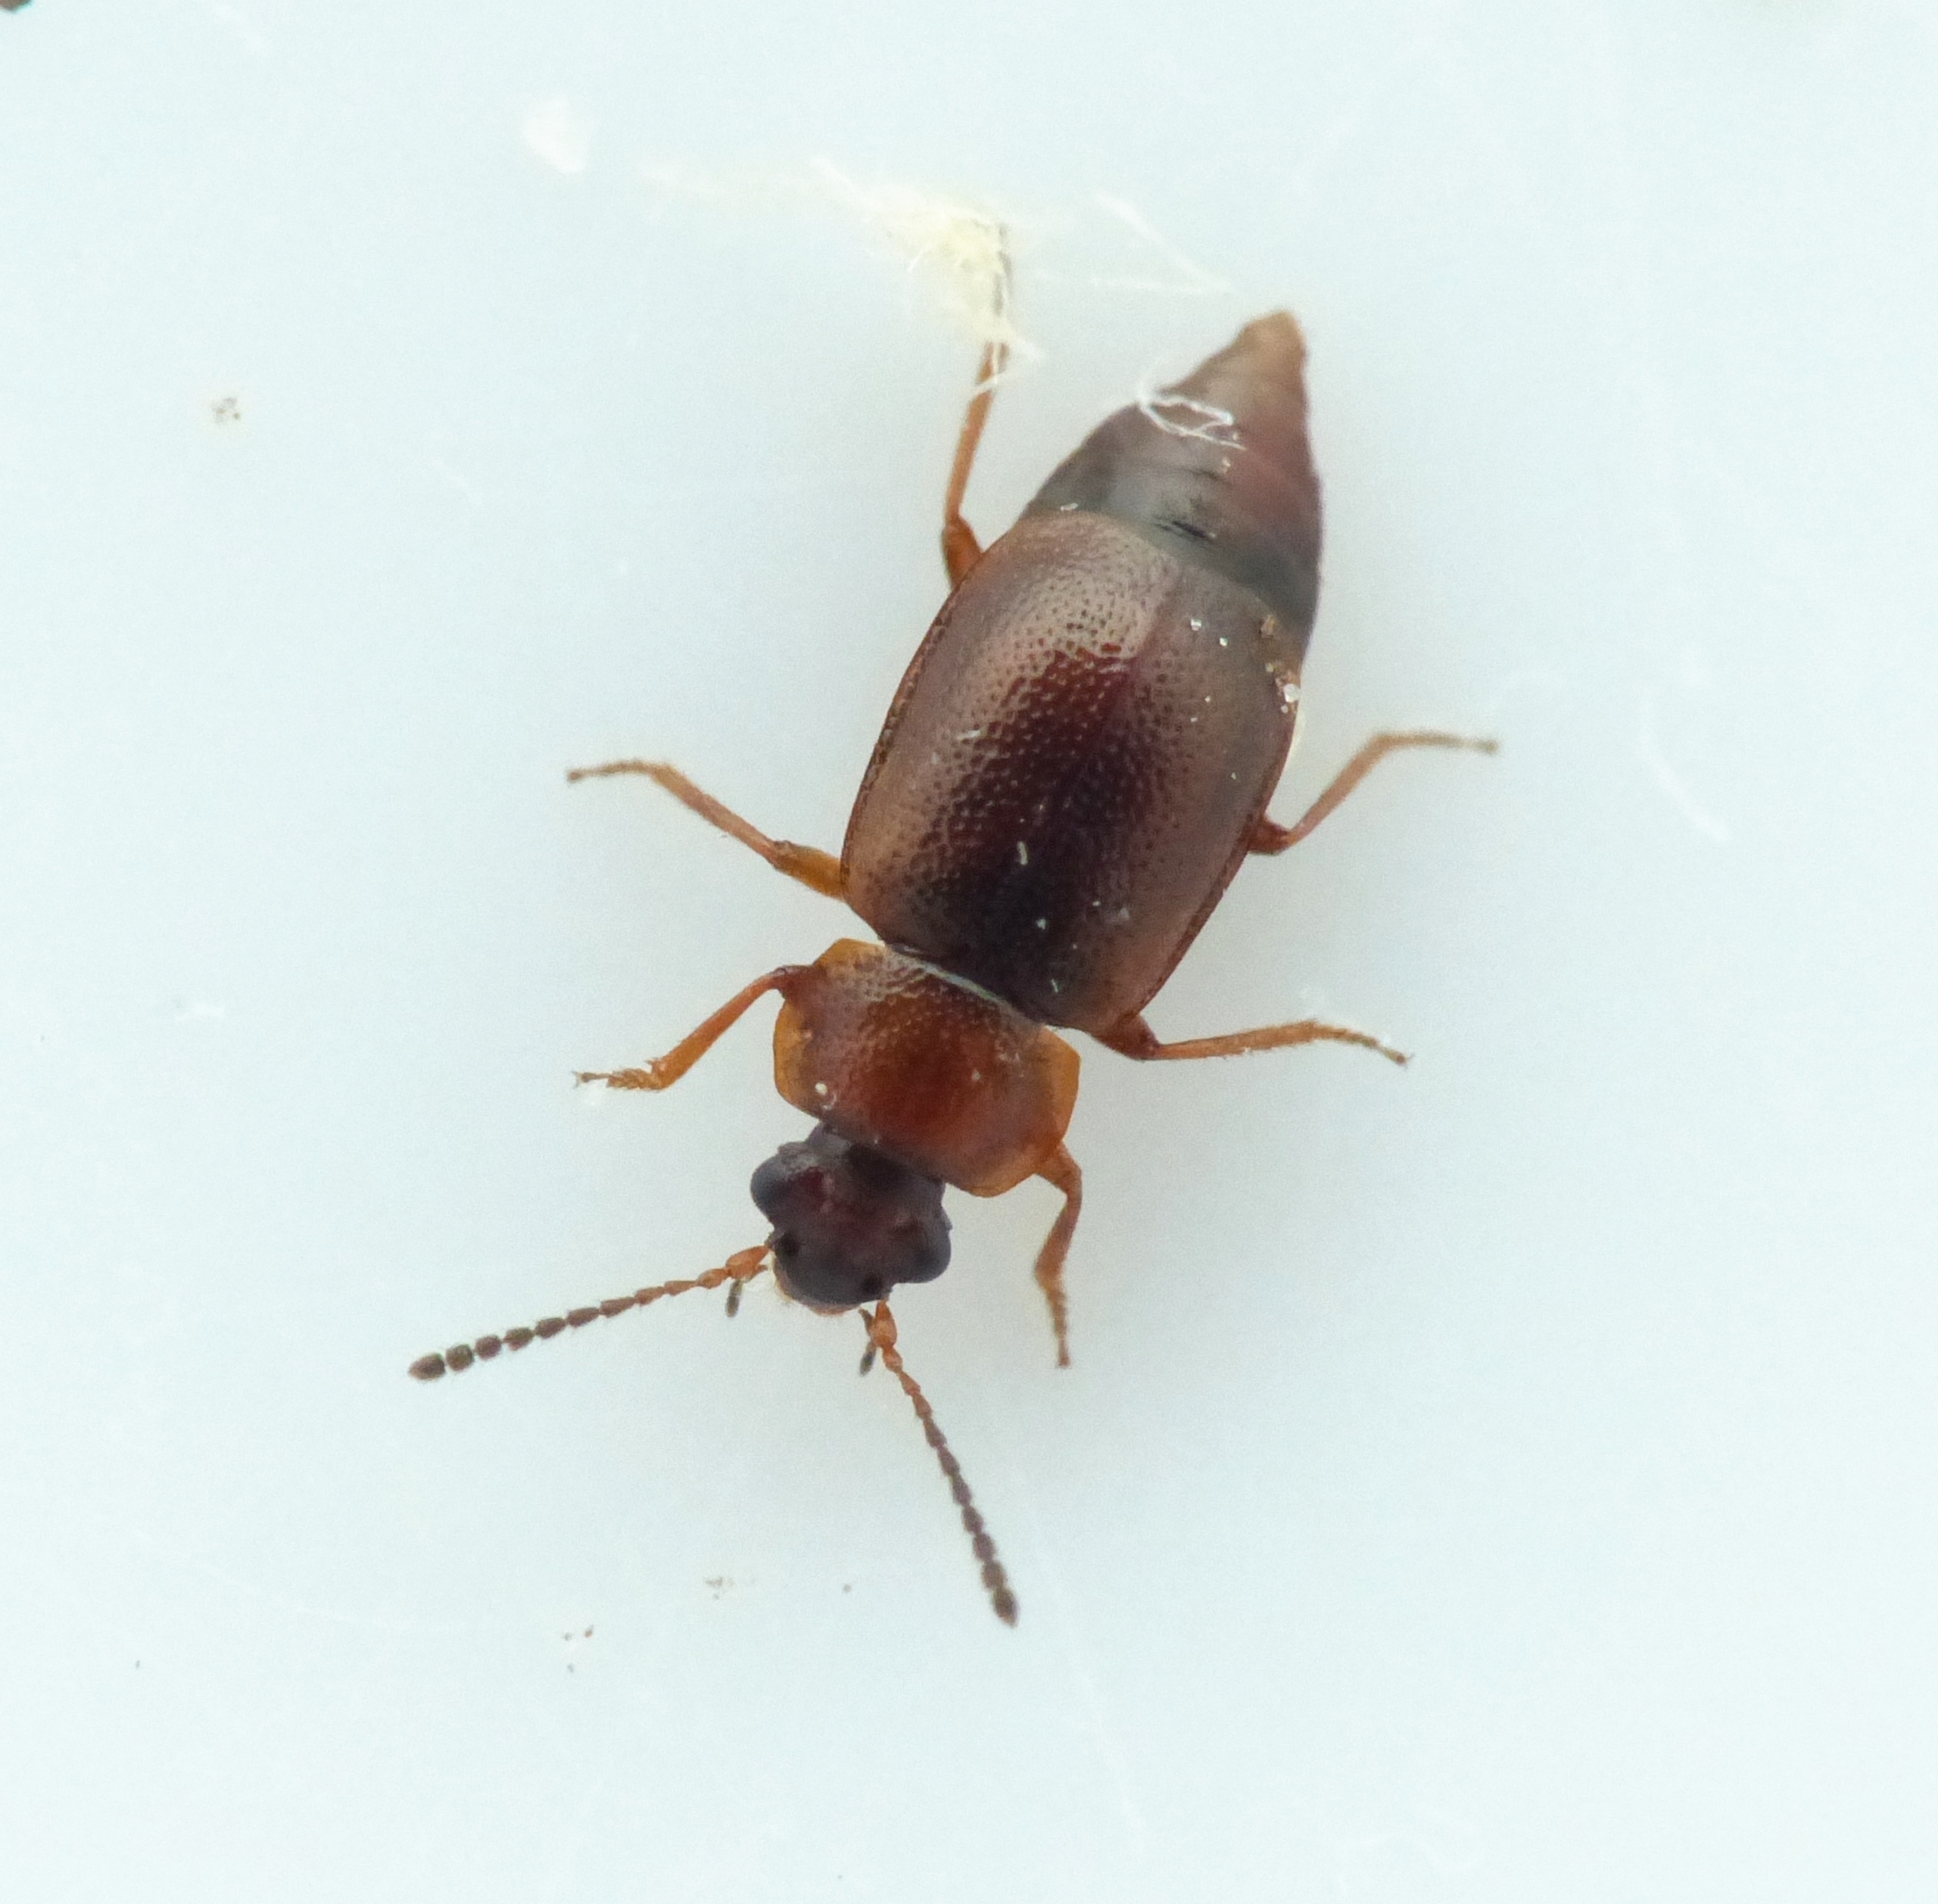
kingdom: Animalia
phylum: Arthropoda
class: Insecta
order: Coleoptera
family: Staphylinidae
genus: Anthobium
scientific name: Anthobium atrocephalum
